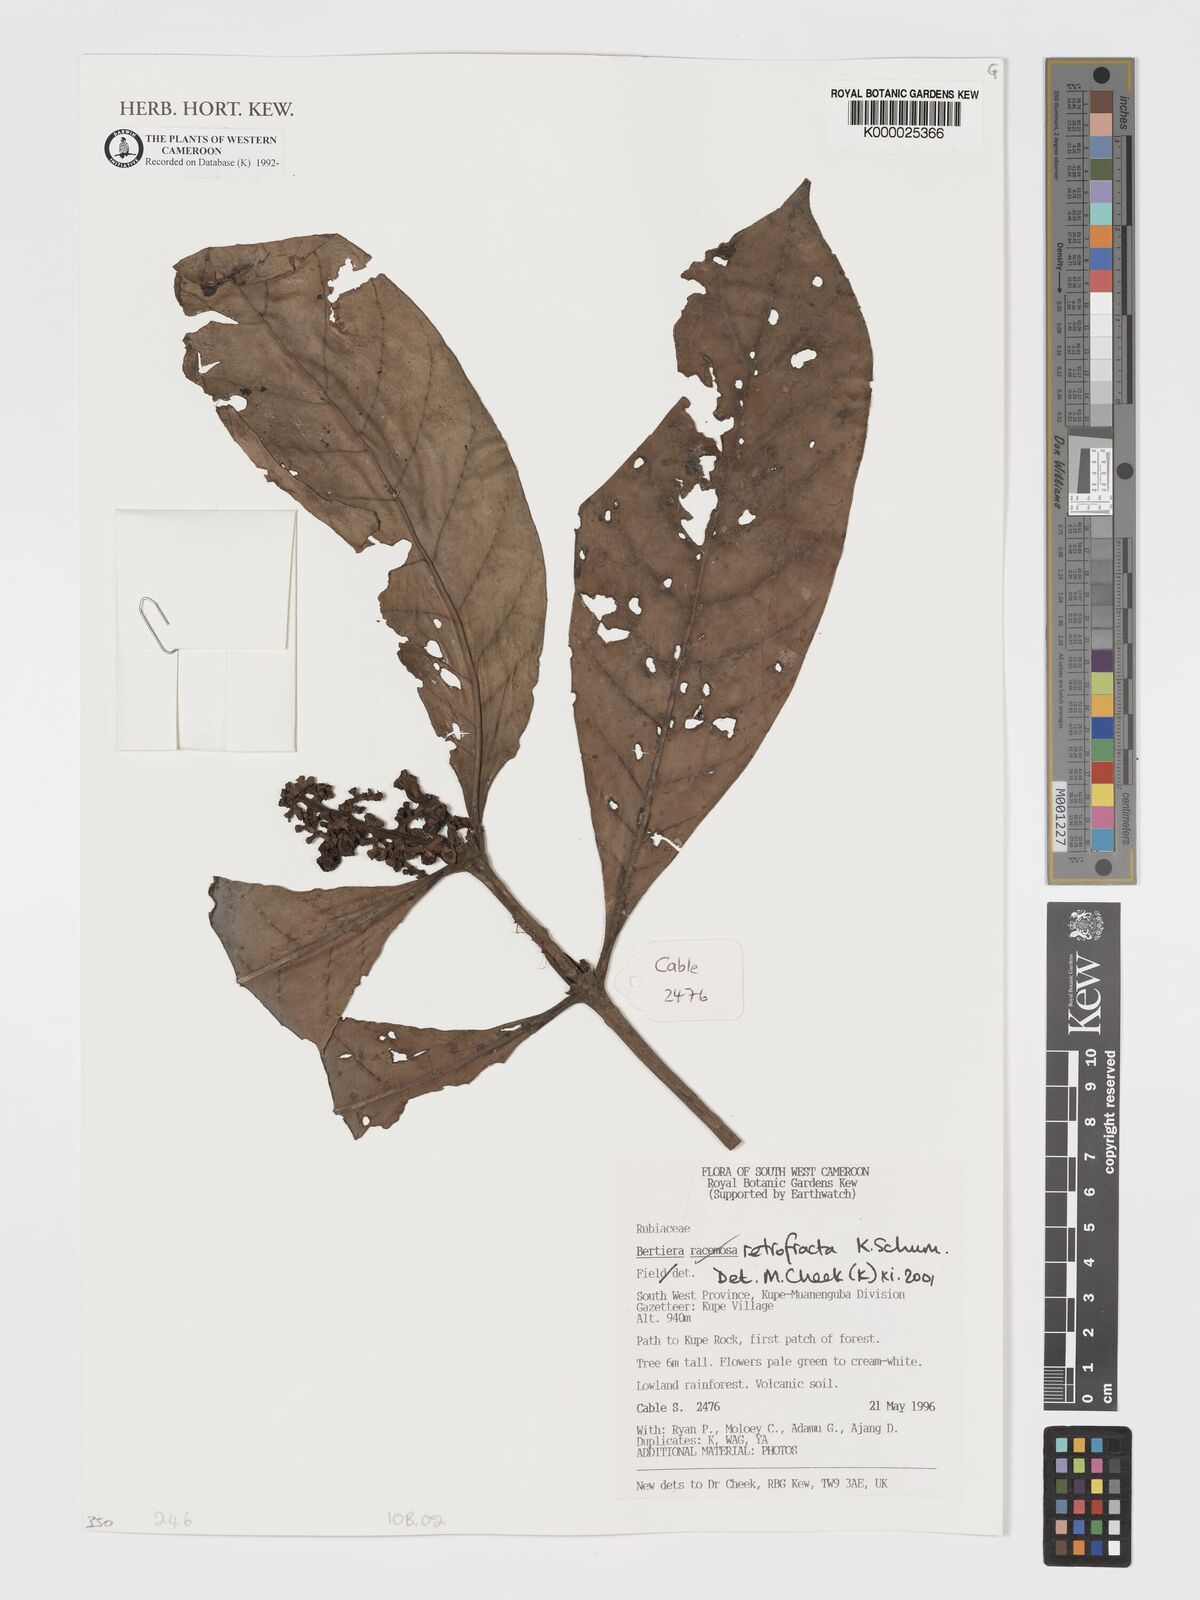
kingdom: Plantae
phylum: Tracheophyta
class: Magnoliopsida
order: Gentianales
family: Rubiaceae
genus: Bertiera
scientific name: Bertiera retrofracta
